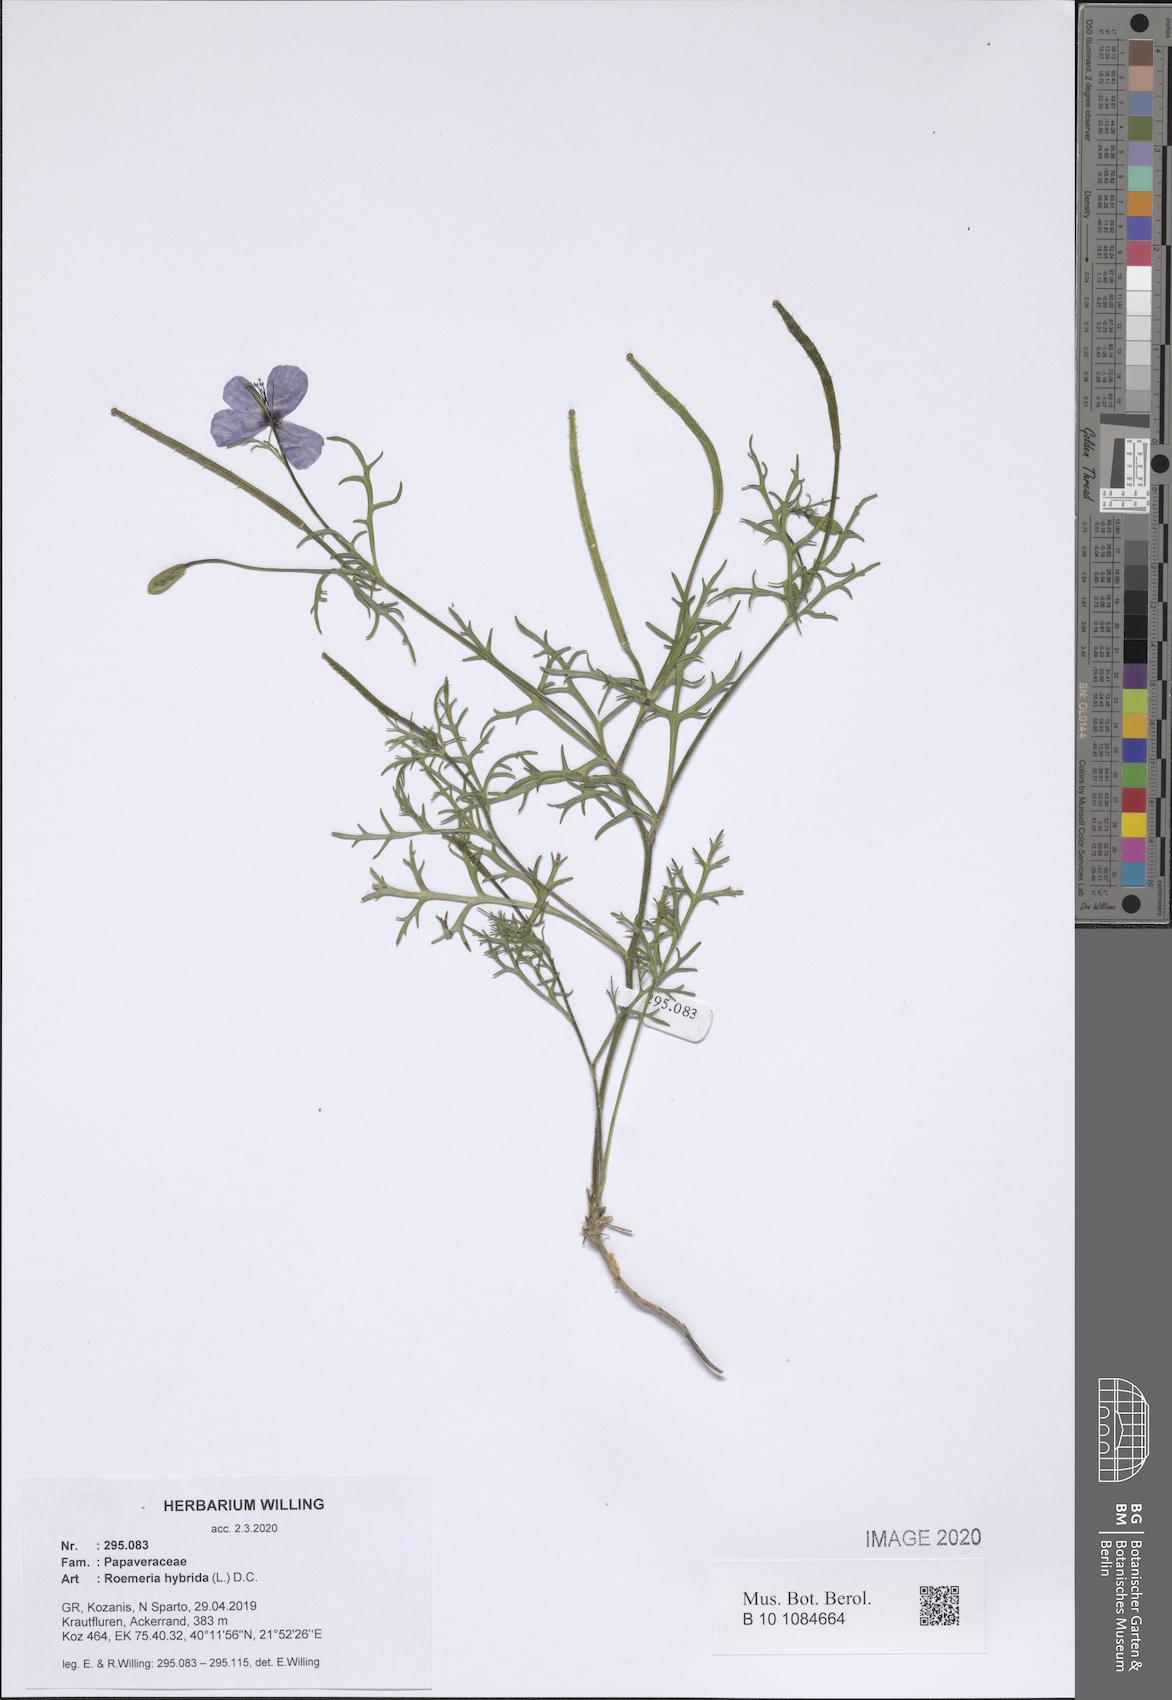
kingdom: Plantae
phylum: Tracheophyta
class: Magnoliopsida
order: Ranunculales
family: Papaveraceae
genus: Roemeria
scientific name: Roemeria hybrida
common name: Violet horned-poppy
